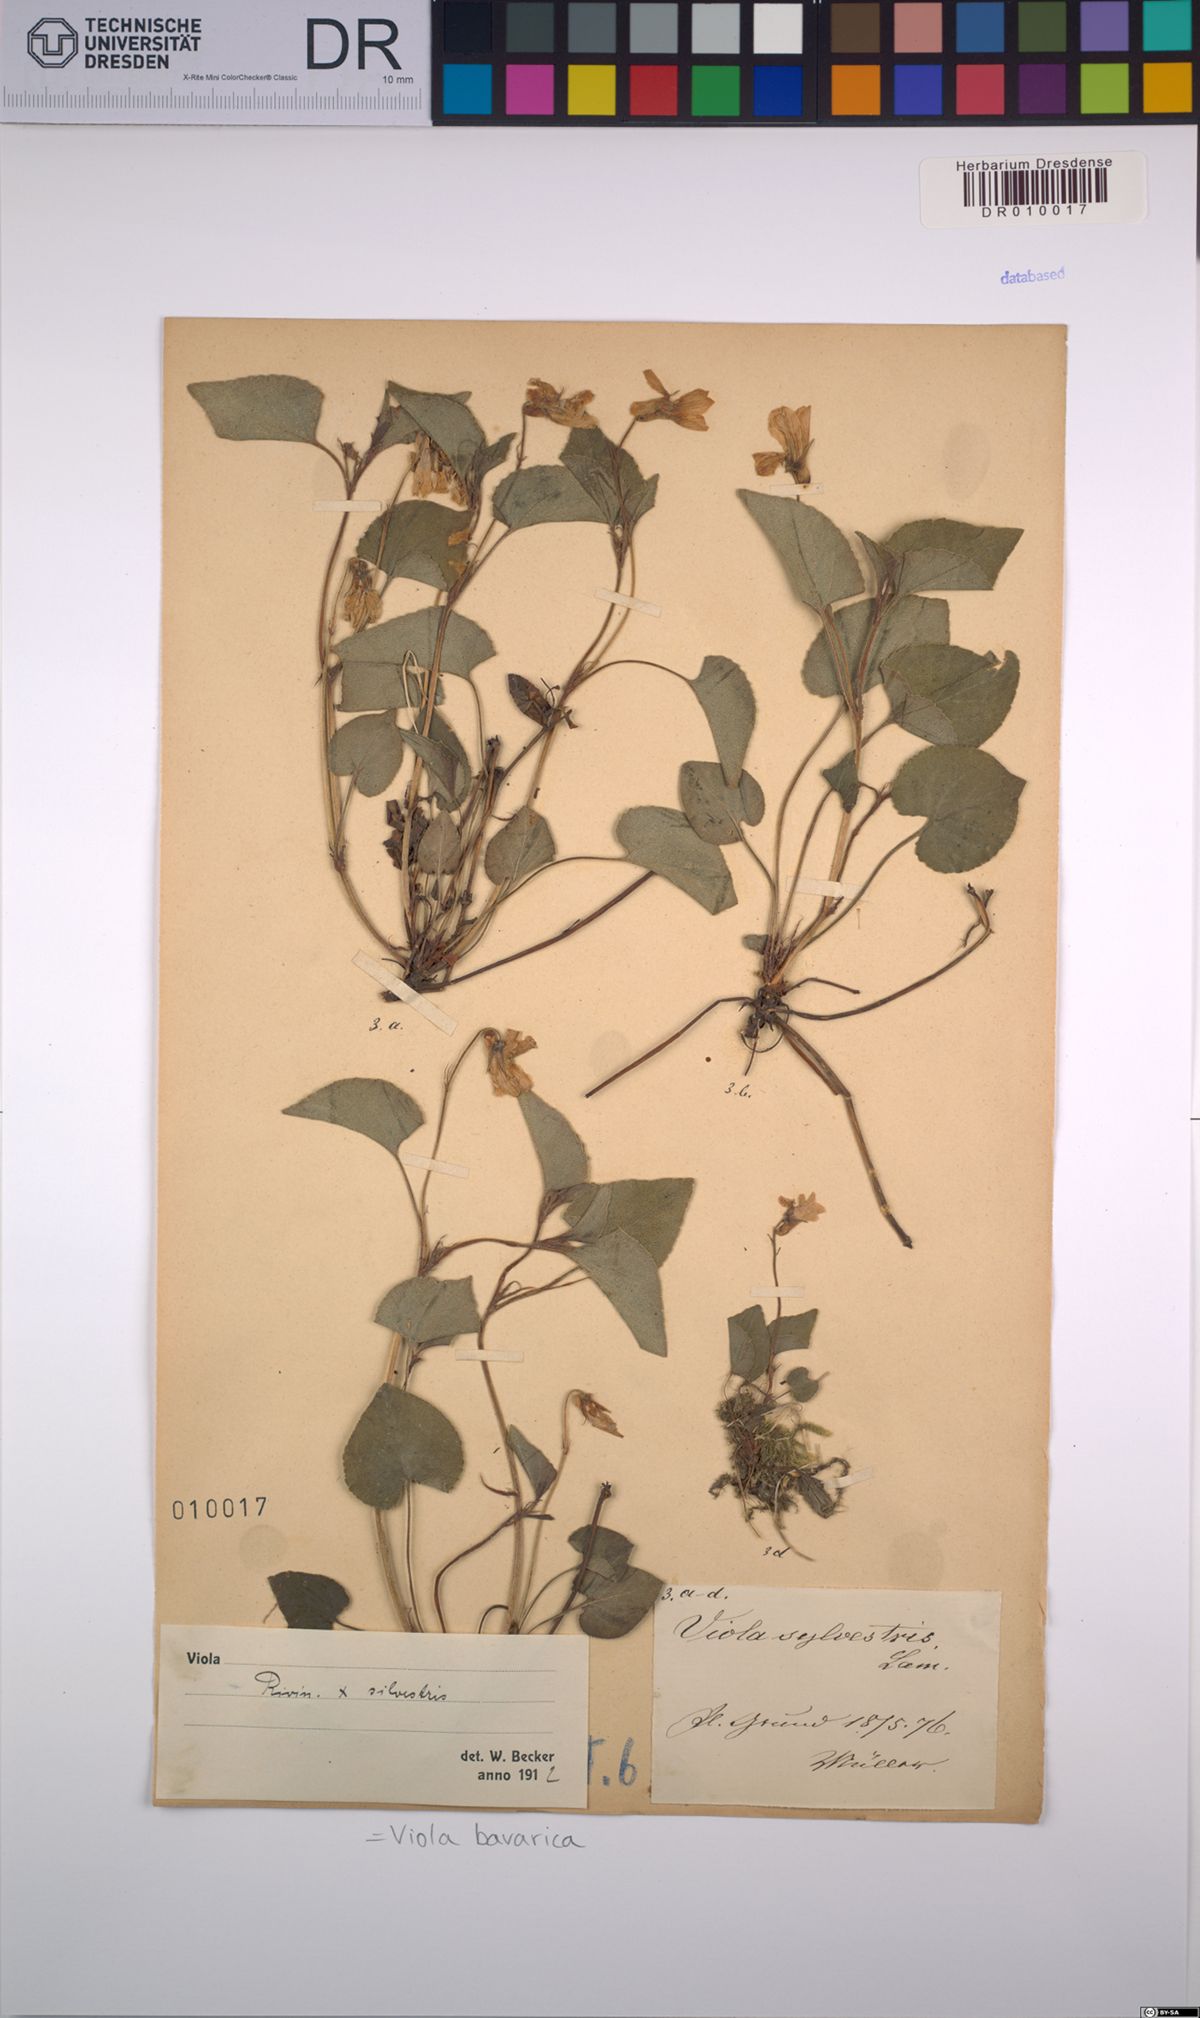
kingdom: Plantae
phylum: Tracheophyta
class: Magnoliopsida
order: Malpighiales
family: Violaceae
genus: Viola
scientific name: Viola bavarica
